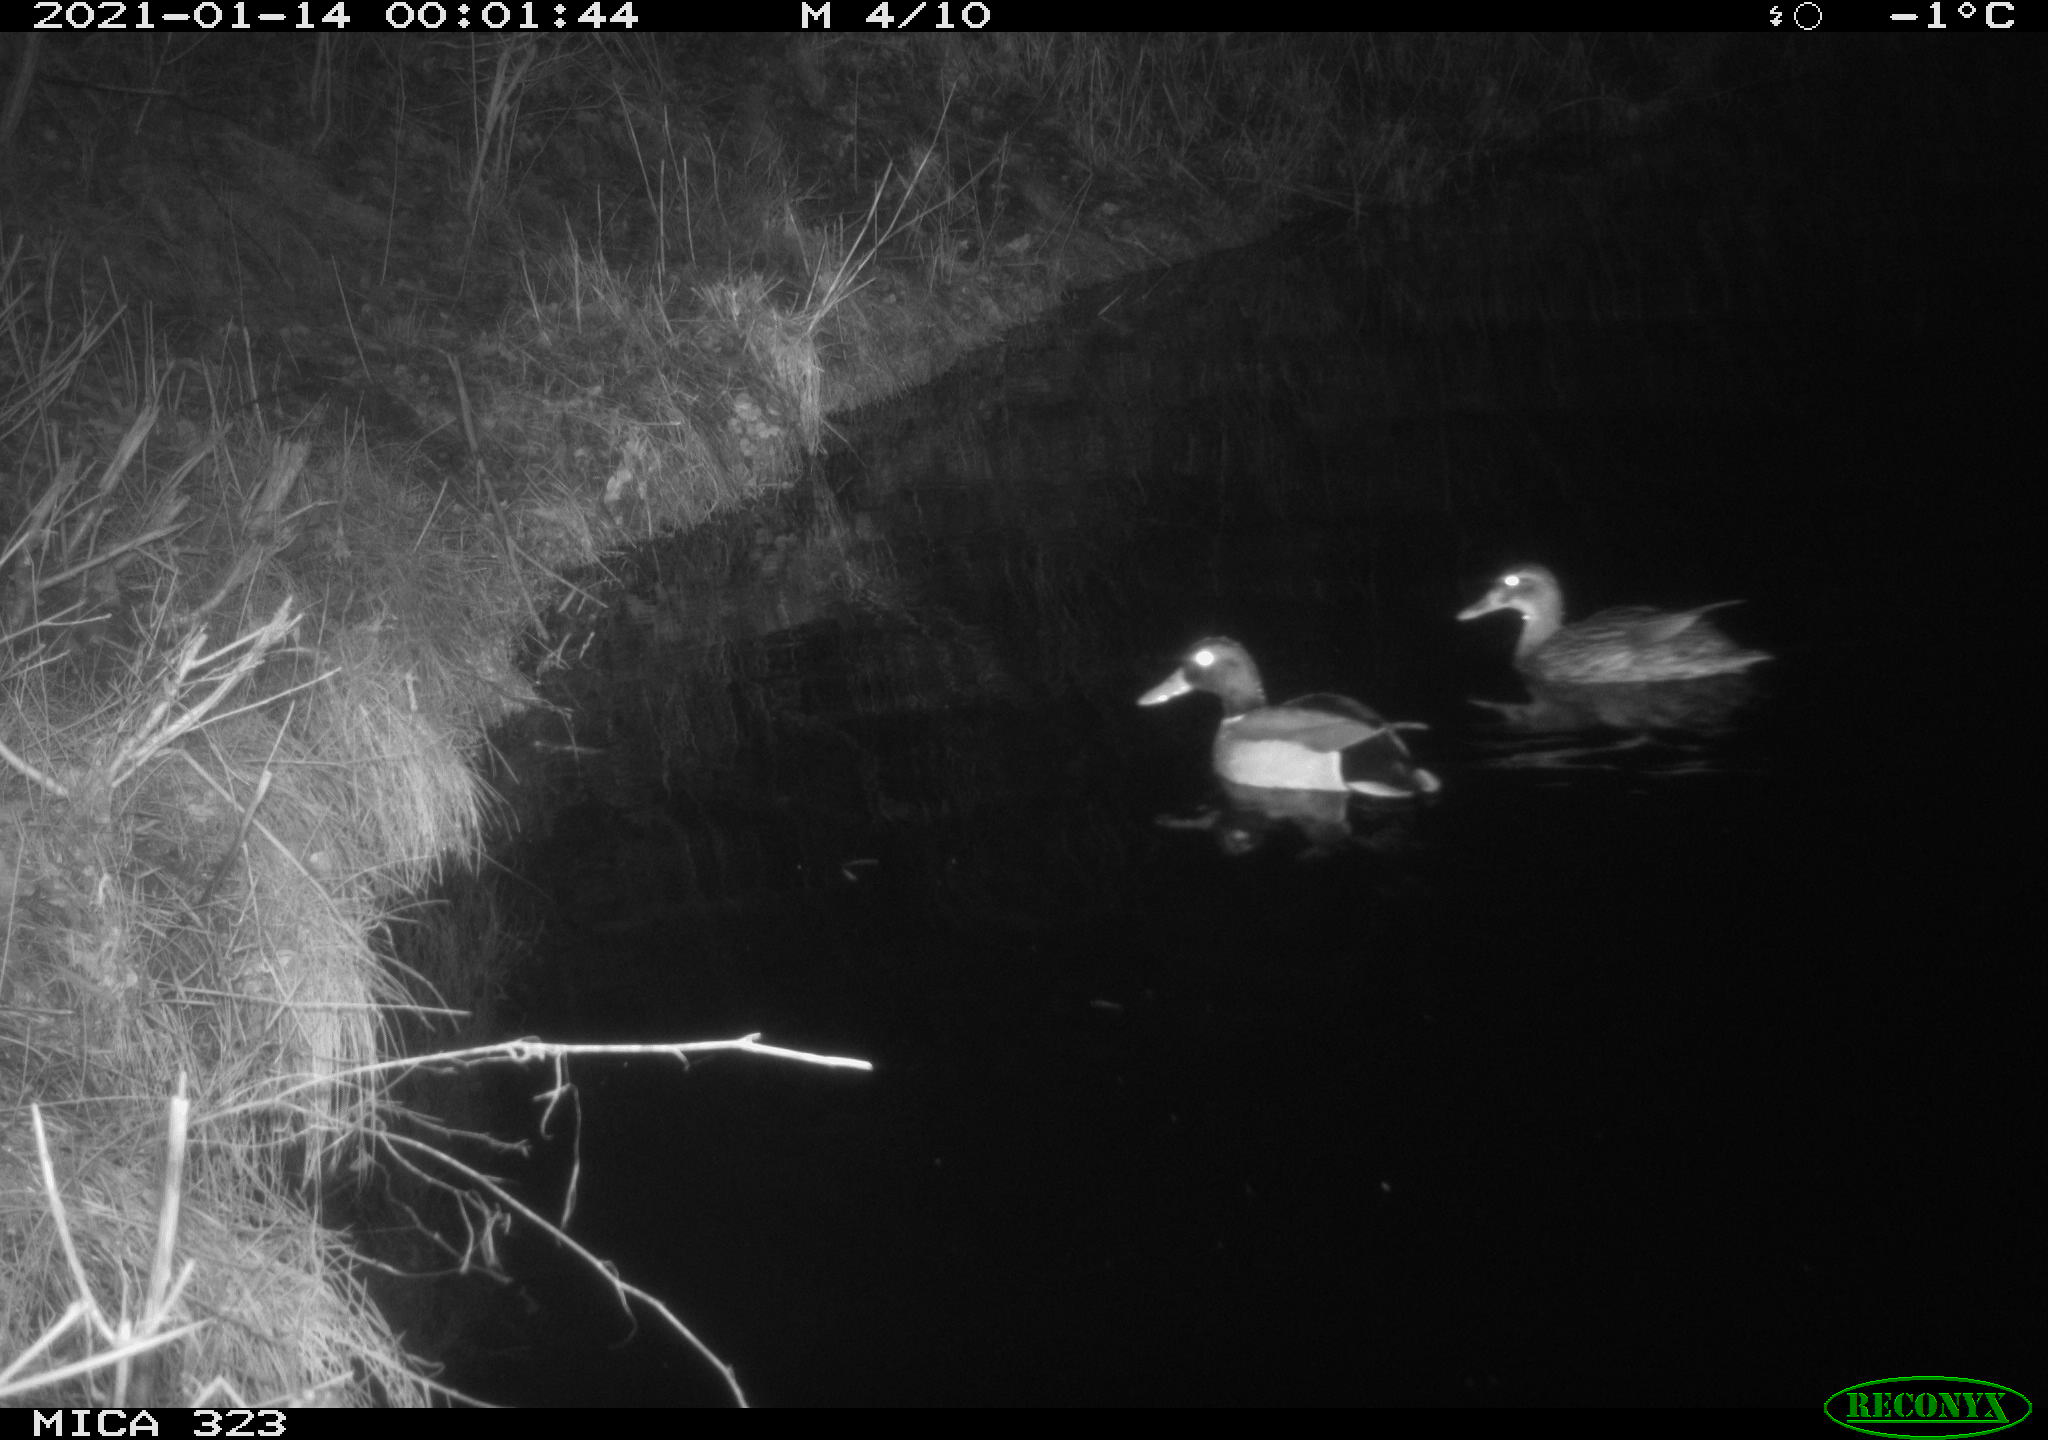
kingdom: Animalia
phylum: Chordata
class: Aves
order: Anseriformes
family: Anatidae
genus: Anas
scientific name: Anas platyrhynchos
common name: Mallard
